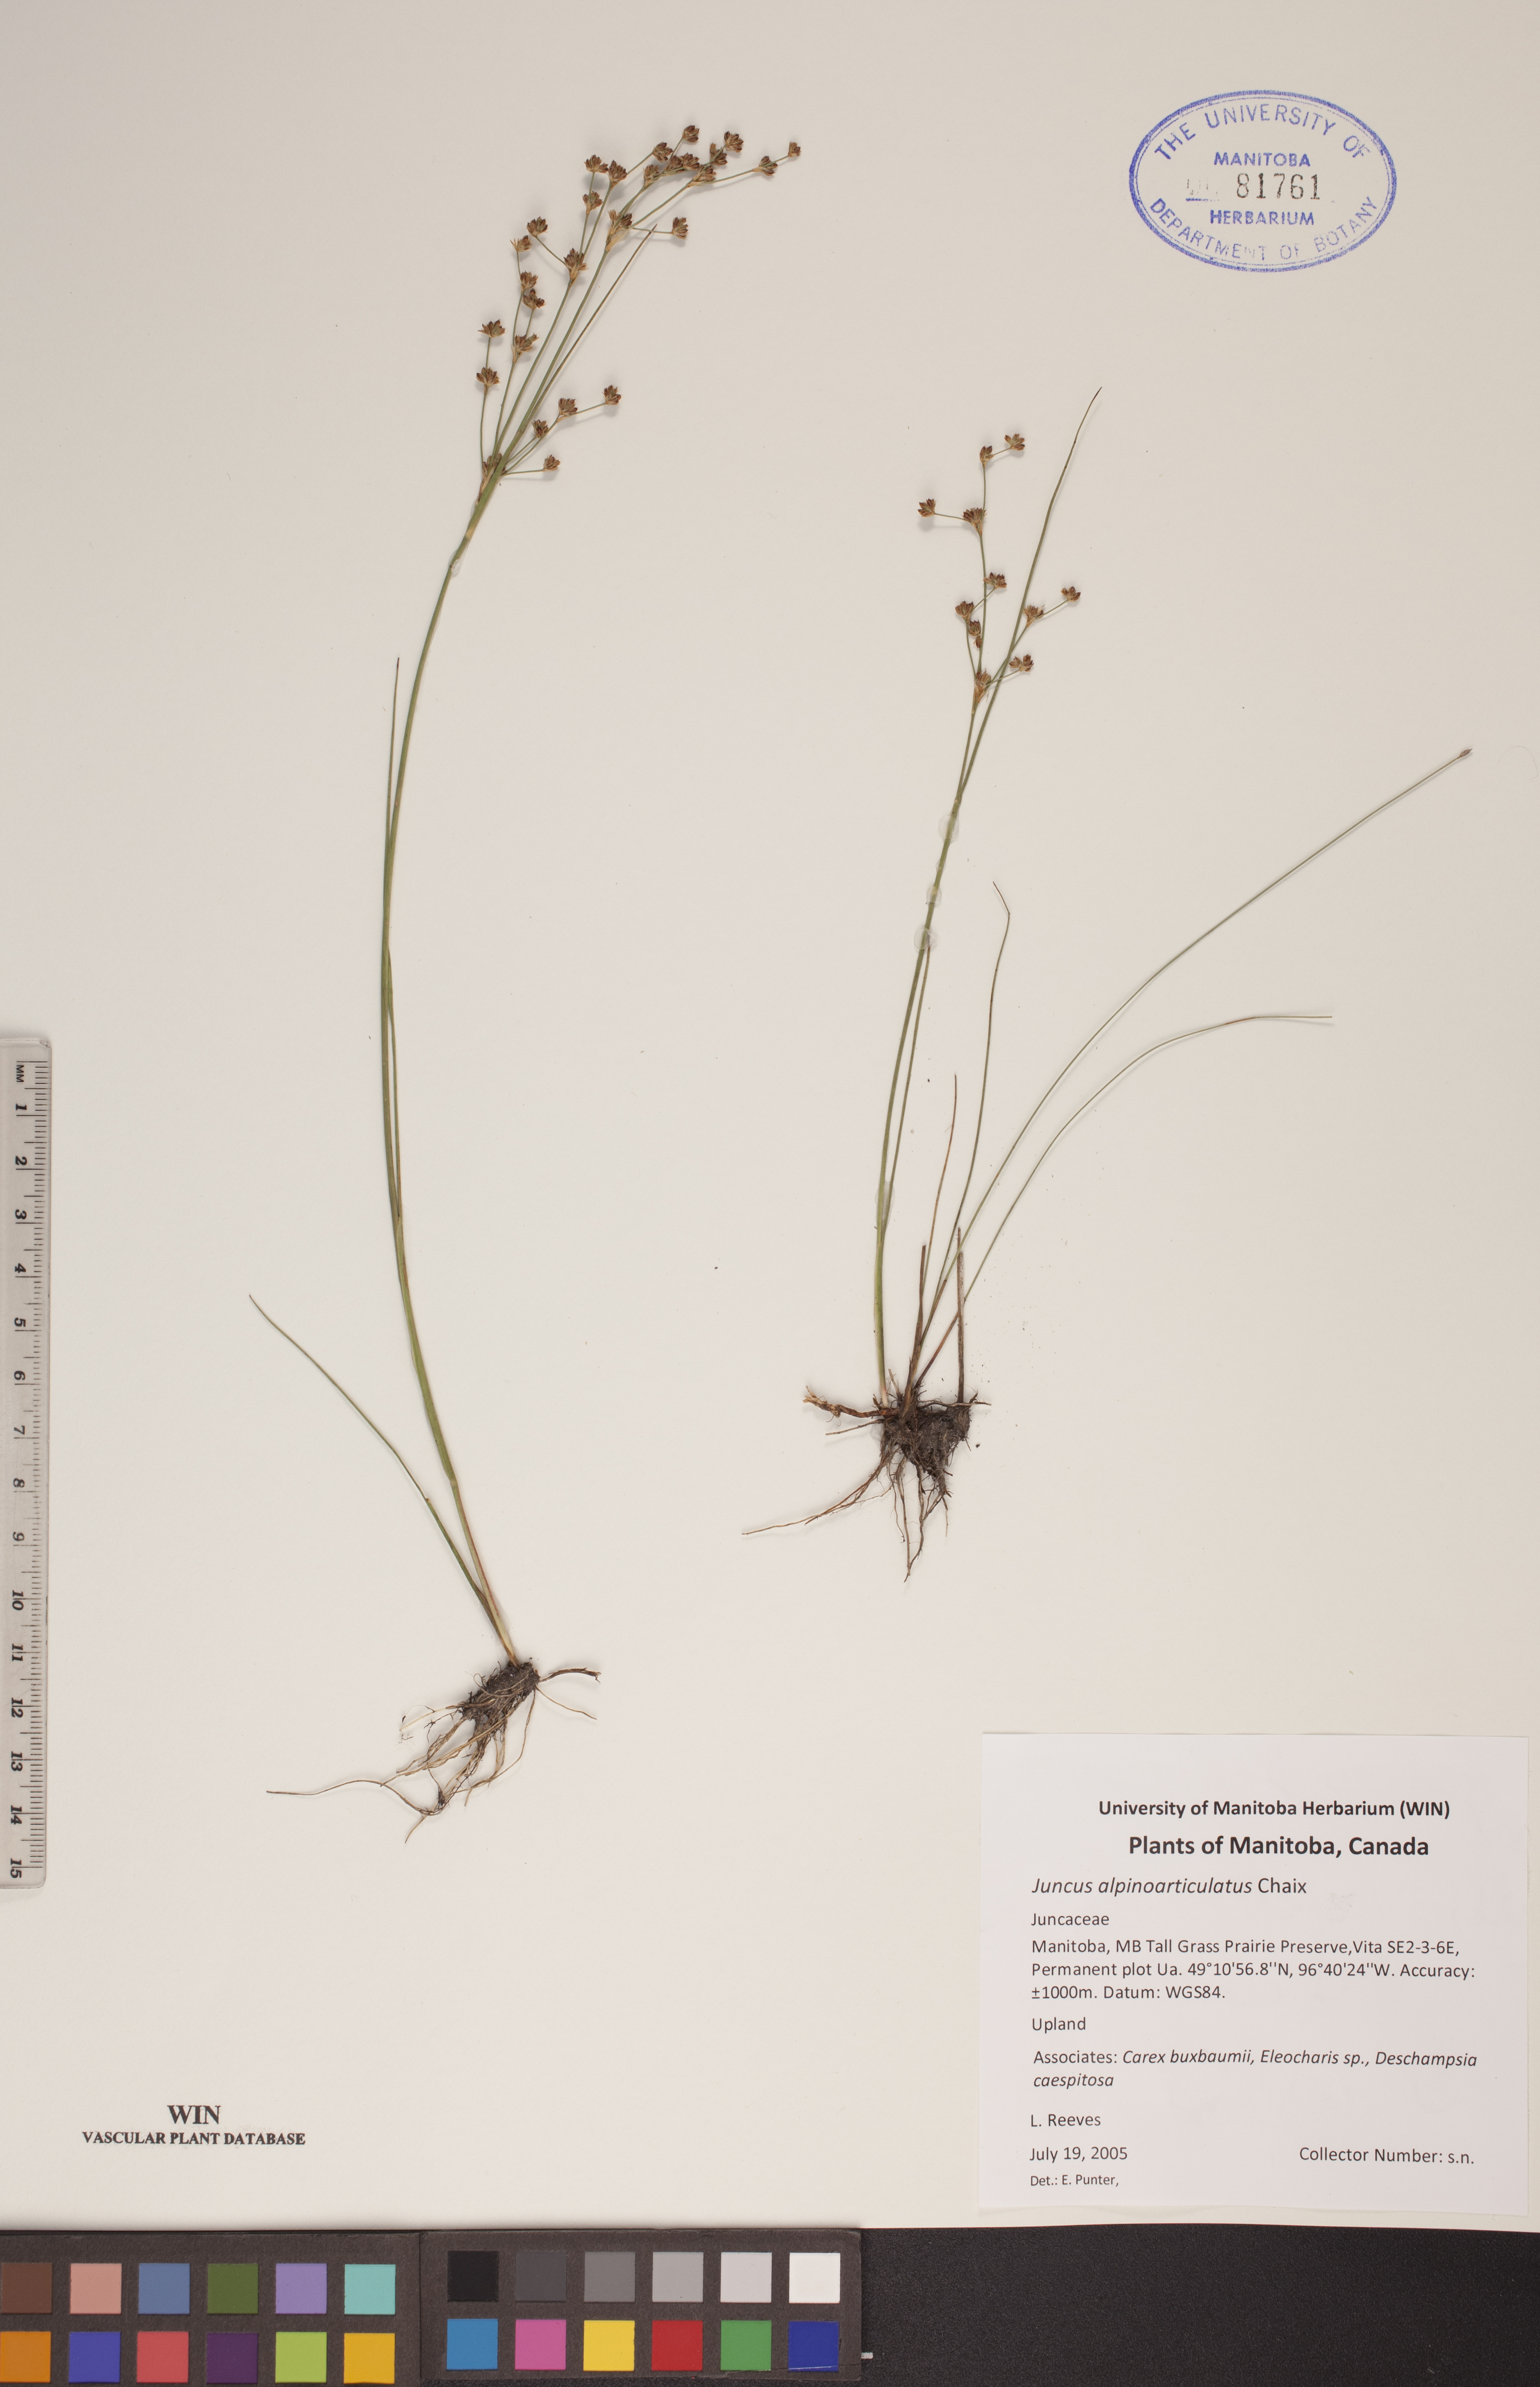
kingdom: Plantae
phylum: Tracheophyta
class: Liliopsida
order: Poales
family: Juncaceae
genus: Juncus
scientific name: Juncus alpinoarticulatus
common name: Alpine rush
